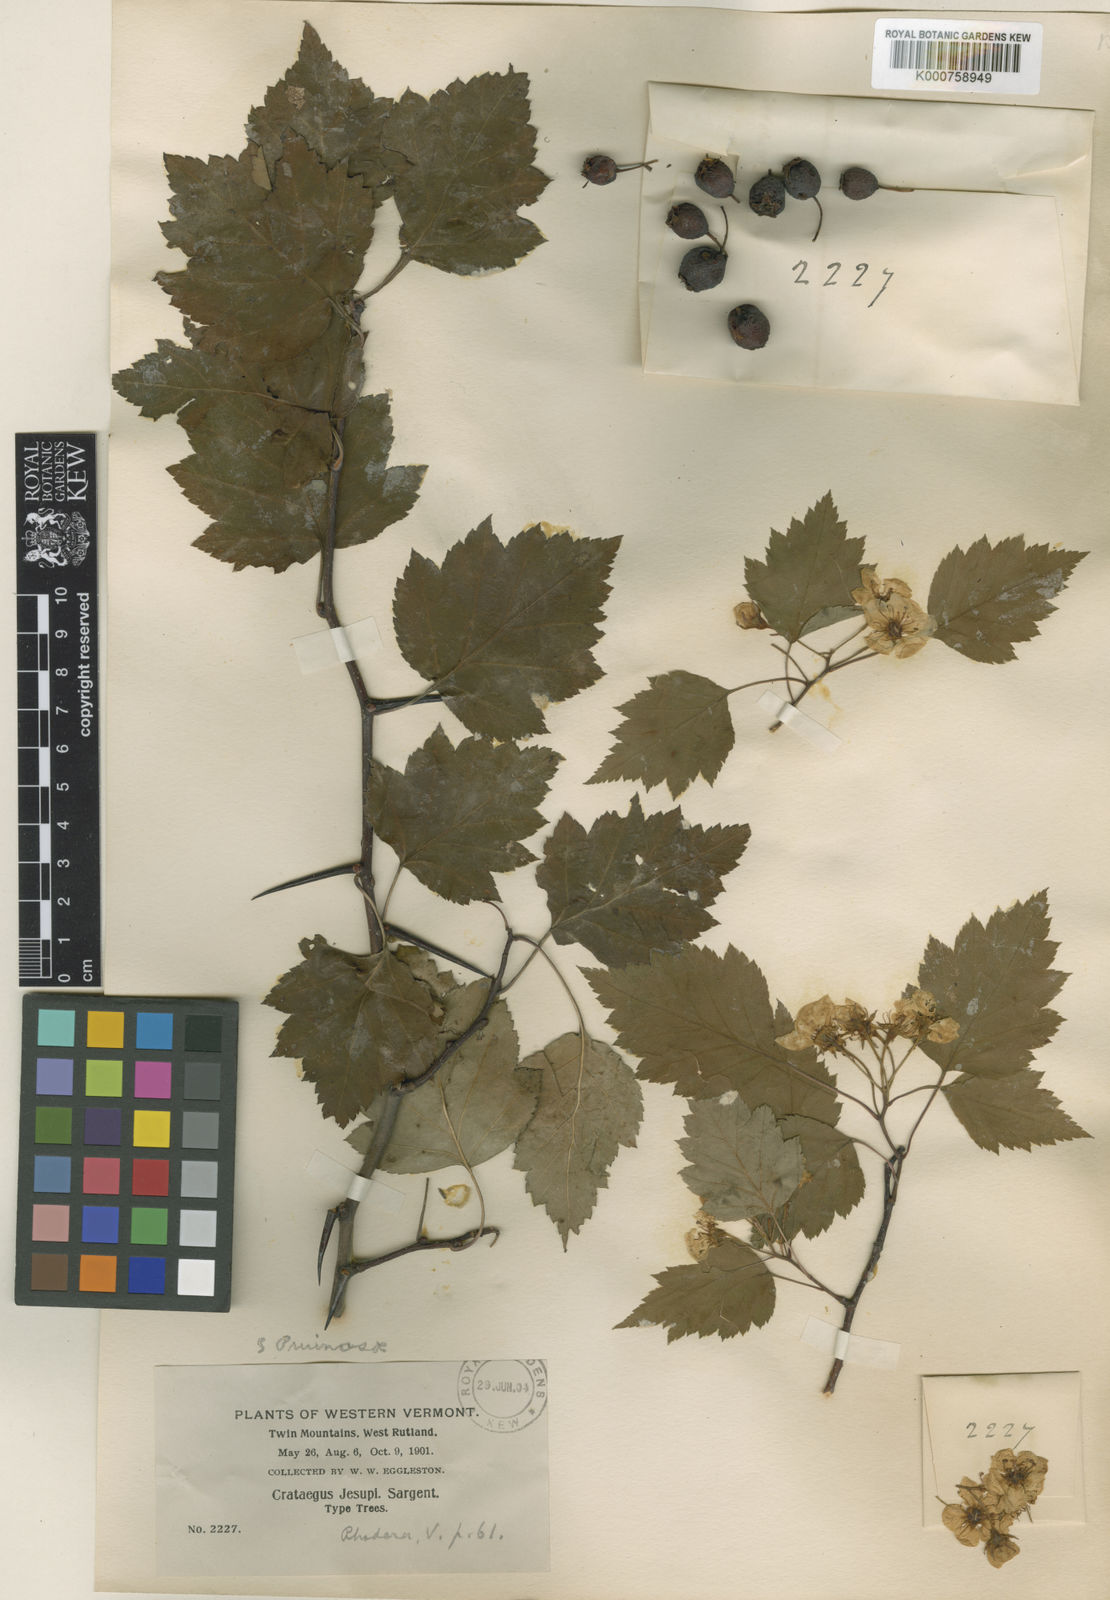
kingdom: Plantae
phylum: Tracheophyta
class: Magnoliopsida
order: Rosales
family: Rosaceae
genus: Crataegus
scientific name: Crataegus jesupii
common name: Jesup's hawthorn
